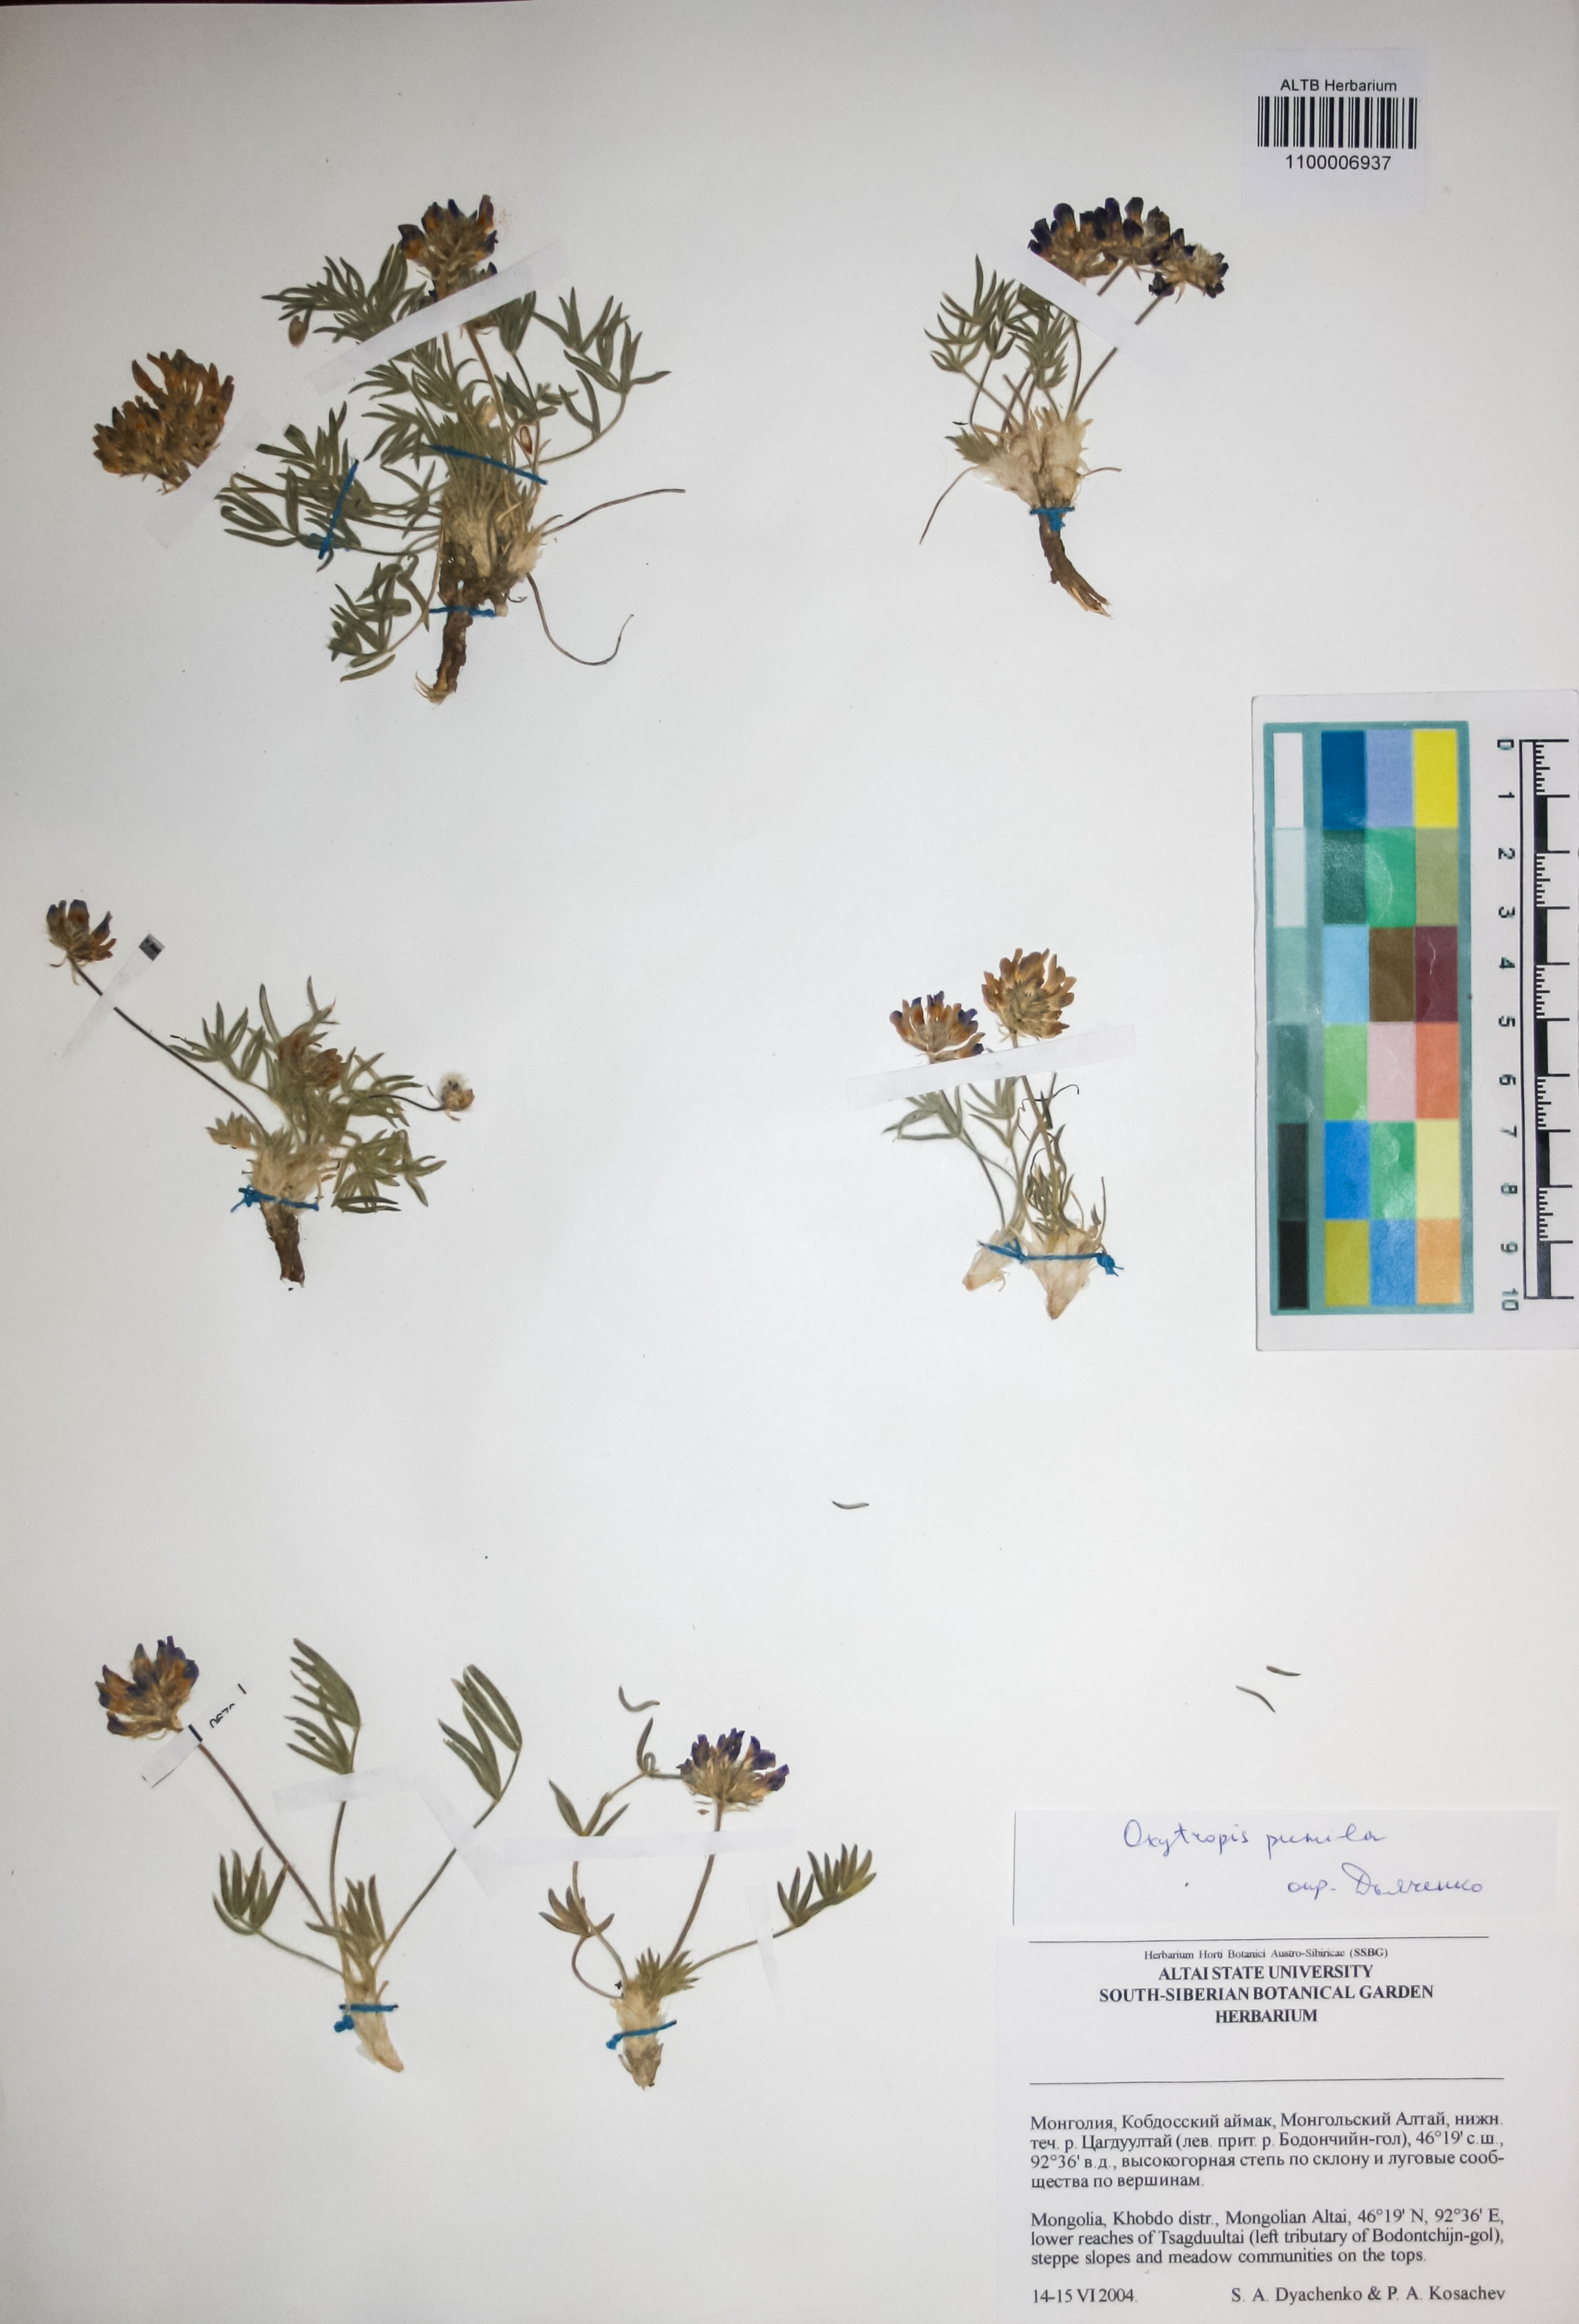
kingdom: Plantae
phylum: Tracheophyta
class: Magnoliopsida
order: Fabales
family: Fabaceae
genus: Oxytropis
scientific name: Oxytropis pumila
